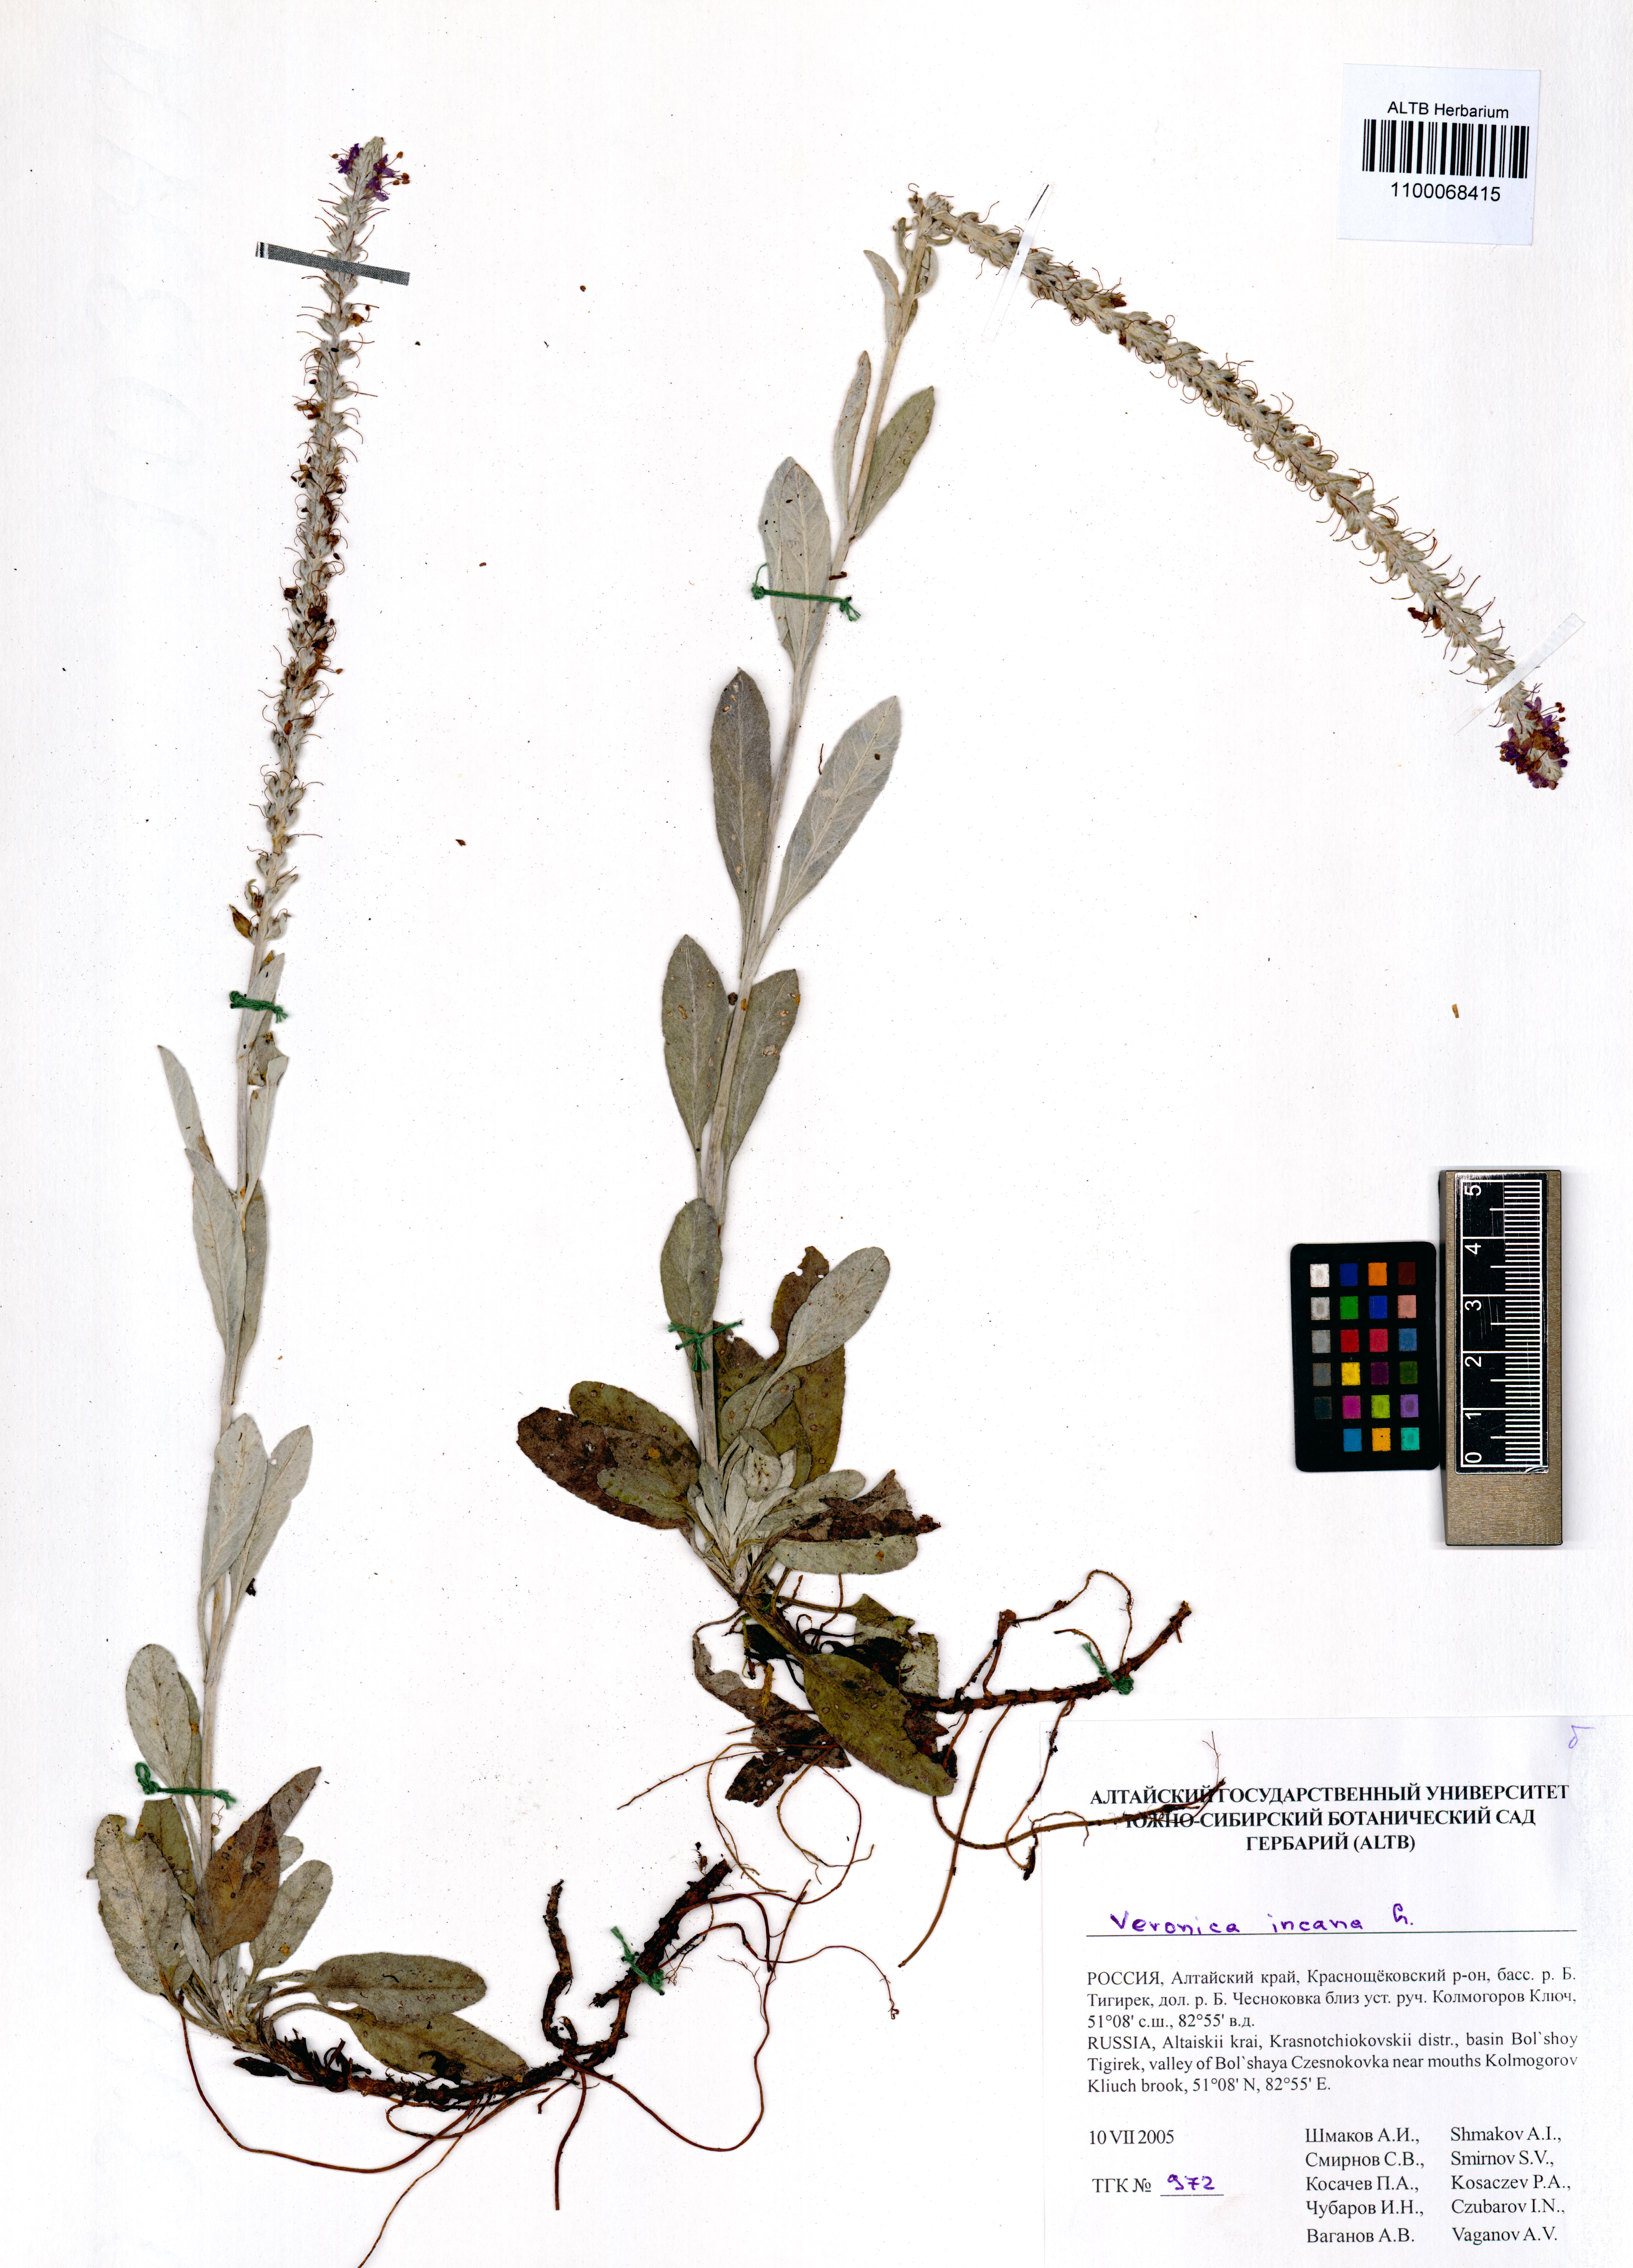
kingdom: Plantae
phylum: Tracheophyta
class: Magnoliopsida
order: Lamiales
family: Plantaginaceae
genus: Veronica
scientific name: Veronica incana
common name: Silver speedwell
